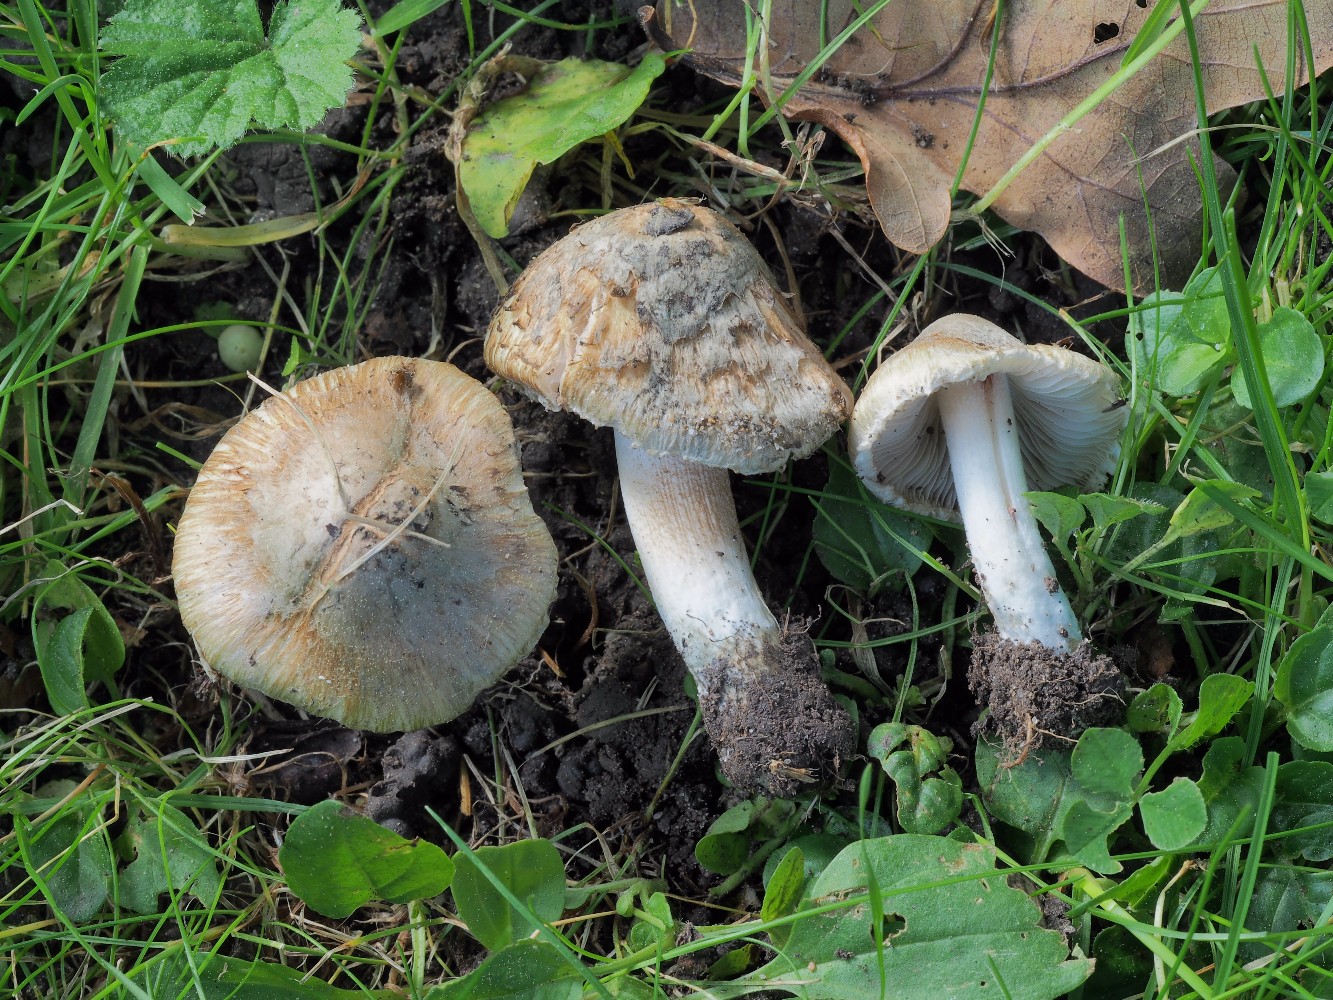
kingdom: Fungi
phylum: Basidiomycota
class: Agaricomycetes
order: Agaricales
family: Inocybaceae
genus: Inocybe
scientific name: Inocybe haemacta
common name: blågrøn trævlhat
